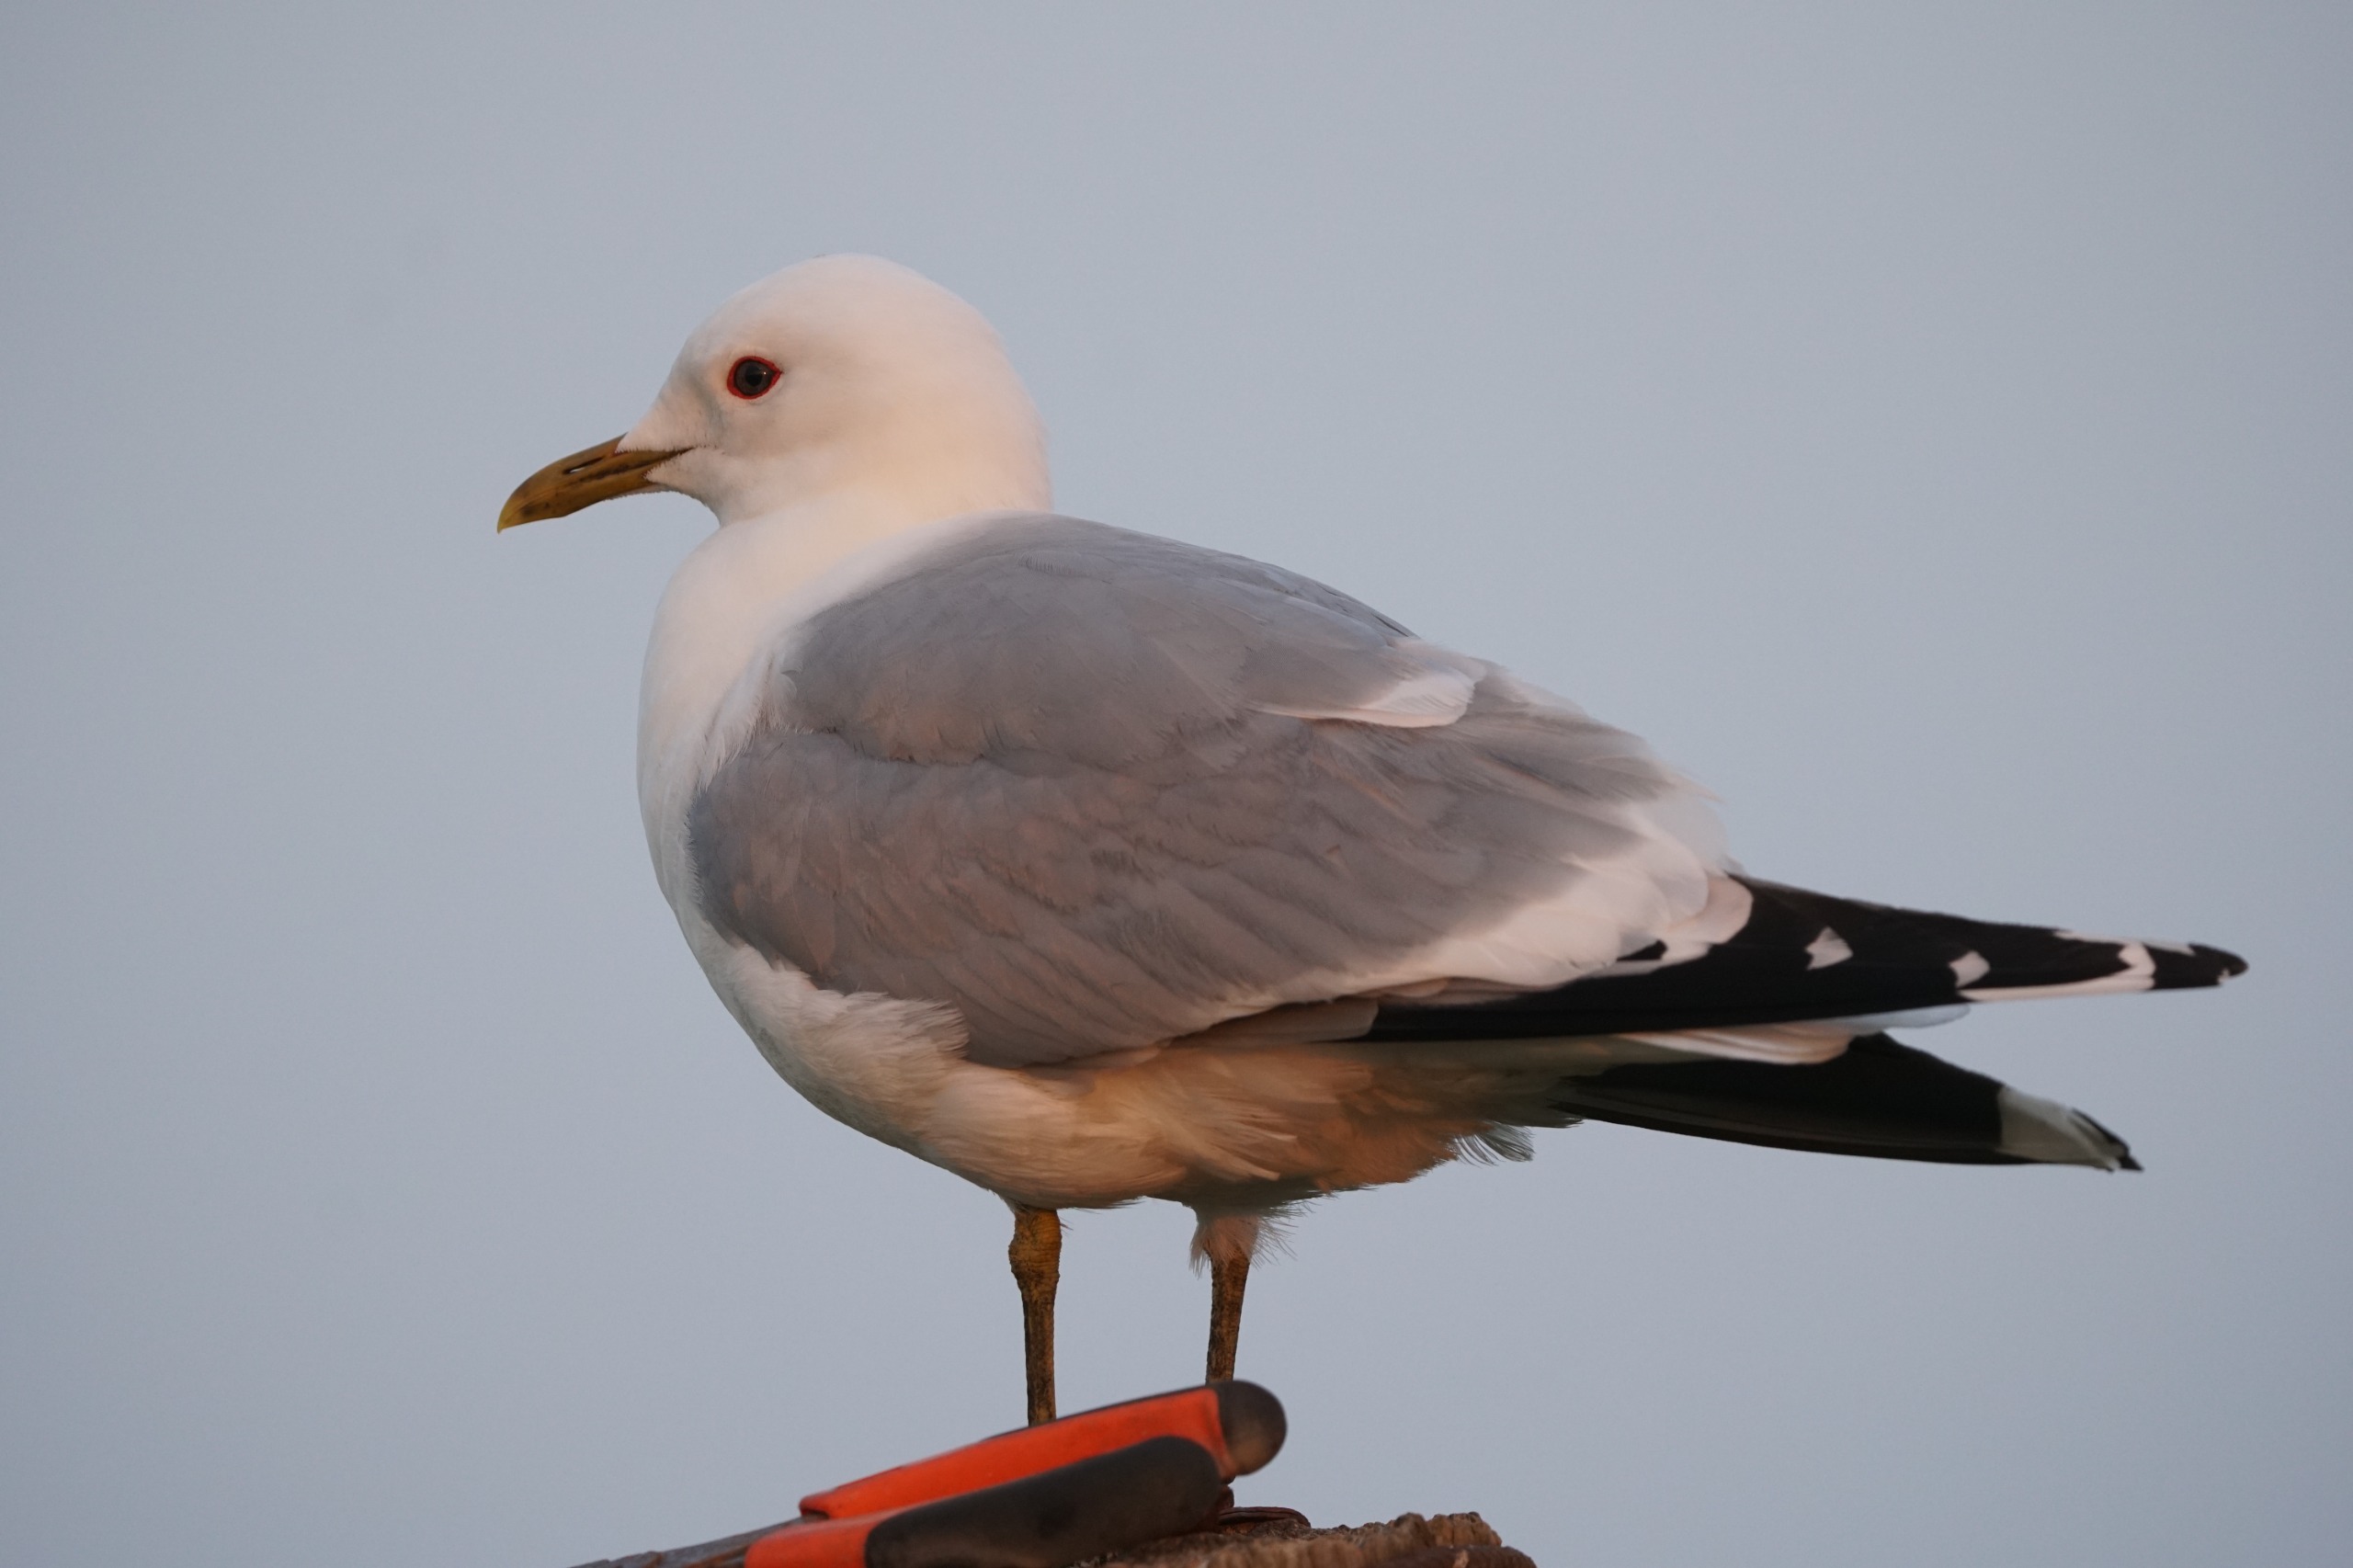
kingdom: Animalia
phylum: Chordata
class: Aves
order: Charadriiformes
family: Laridae
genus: Larus
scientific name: Larus canus
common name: Stormmåge
